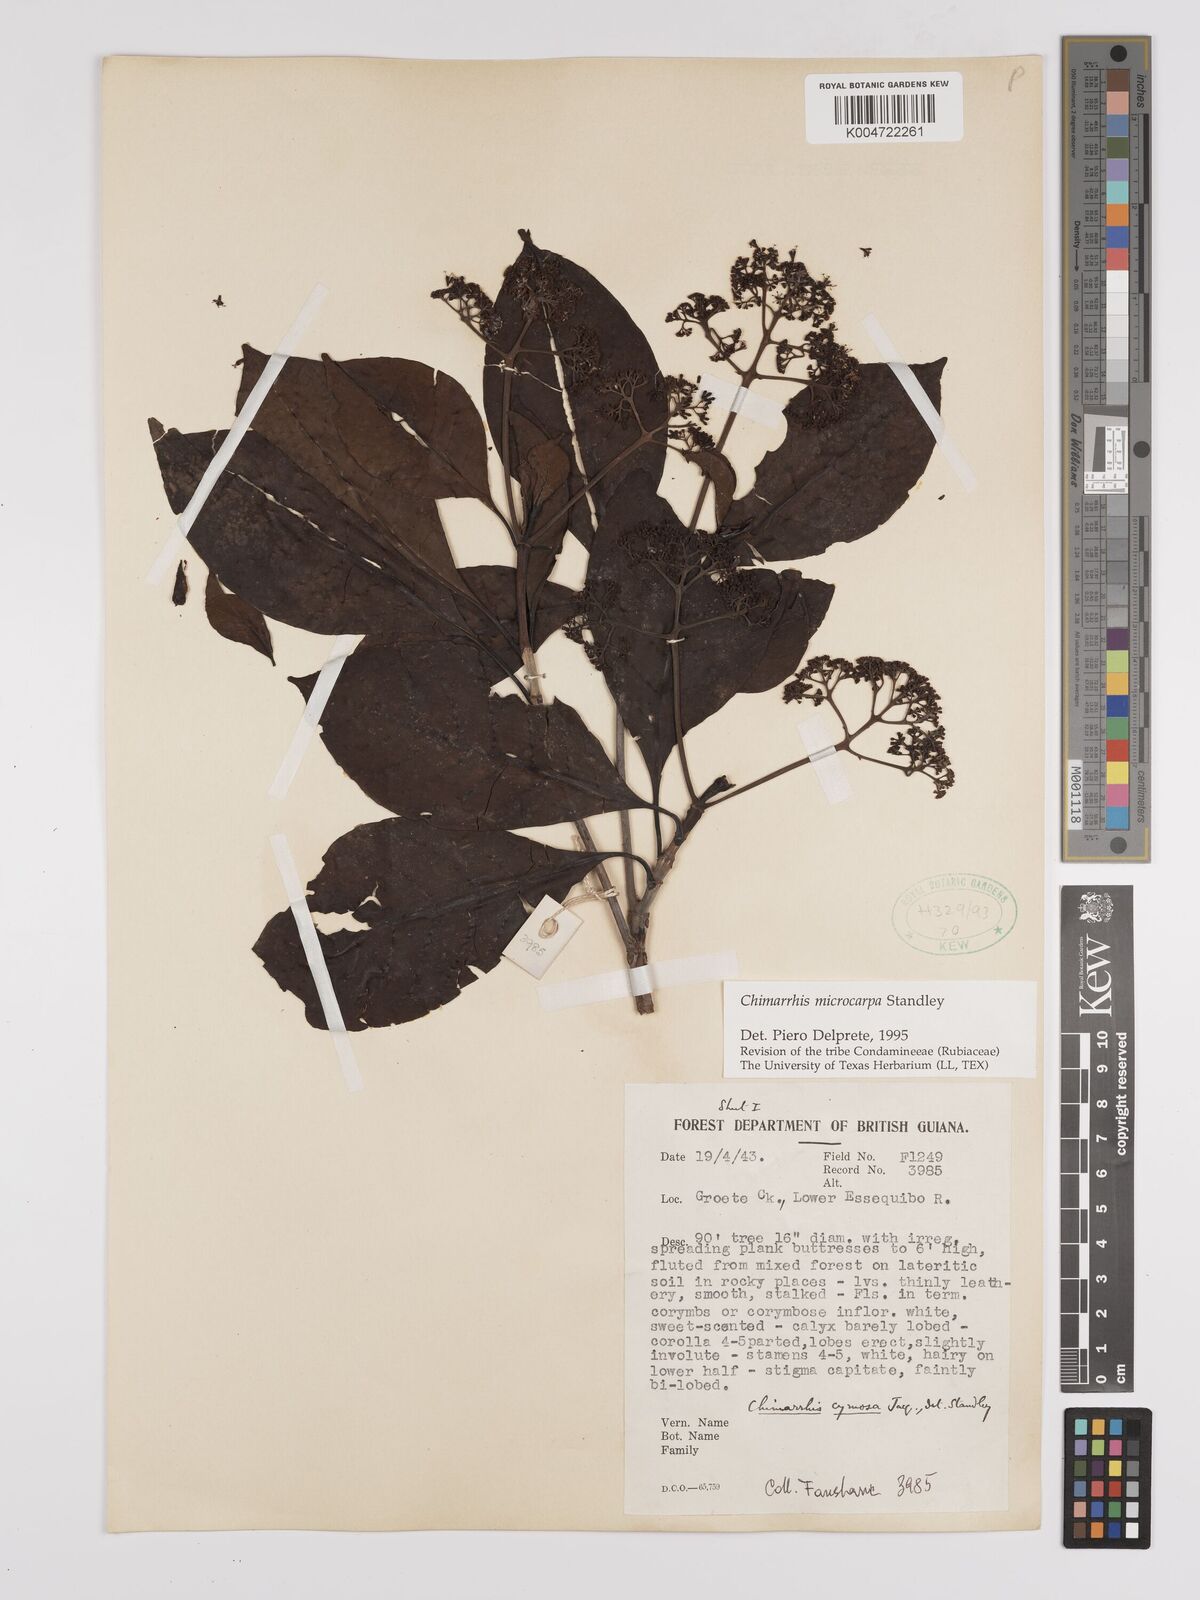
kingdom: Plantae
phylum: Tracheophyta
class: Magnoliopsida
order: Gentianales
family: Rubiaceae
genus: Chimarrhis
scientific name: Chimarrhis microcarpa
